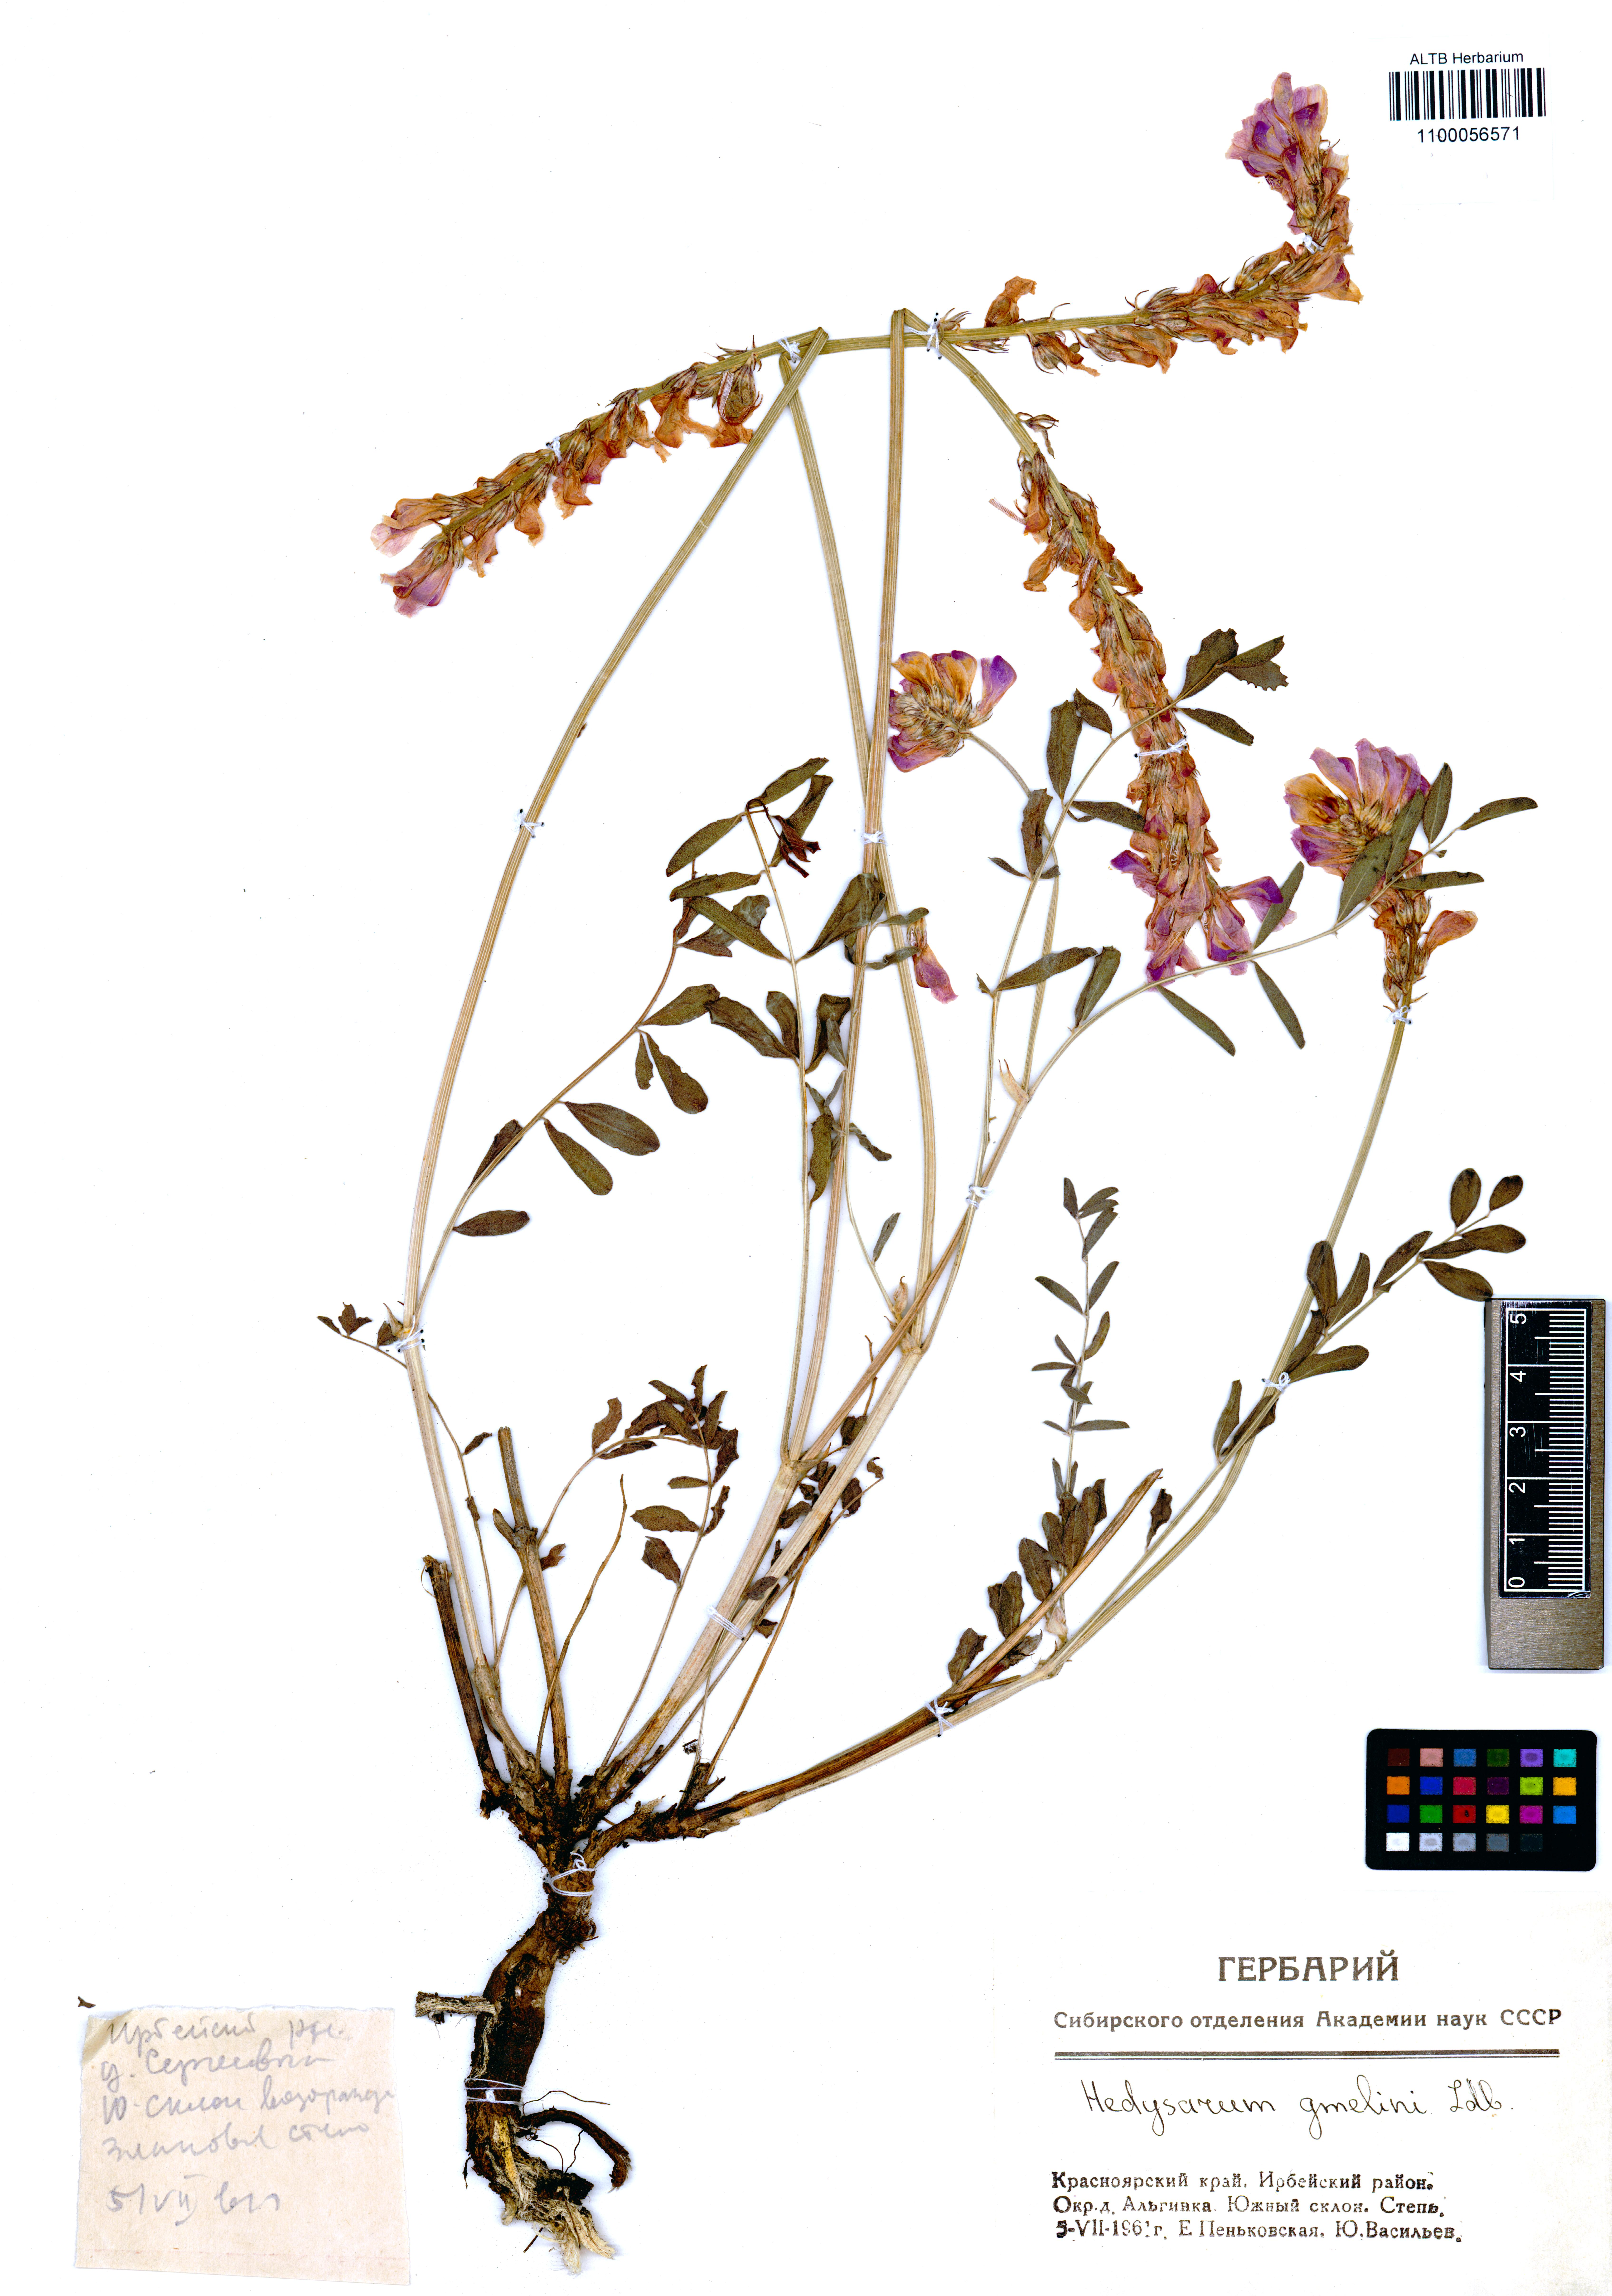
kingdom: Plantae
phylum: Tracheophyta
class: Magnoliopsida
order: Fabales
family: Fabaceae
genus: Hedysarum
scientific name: Hedysarum gmelinii
